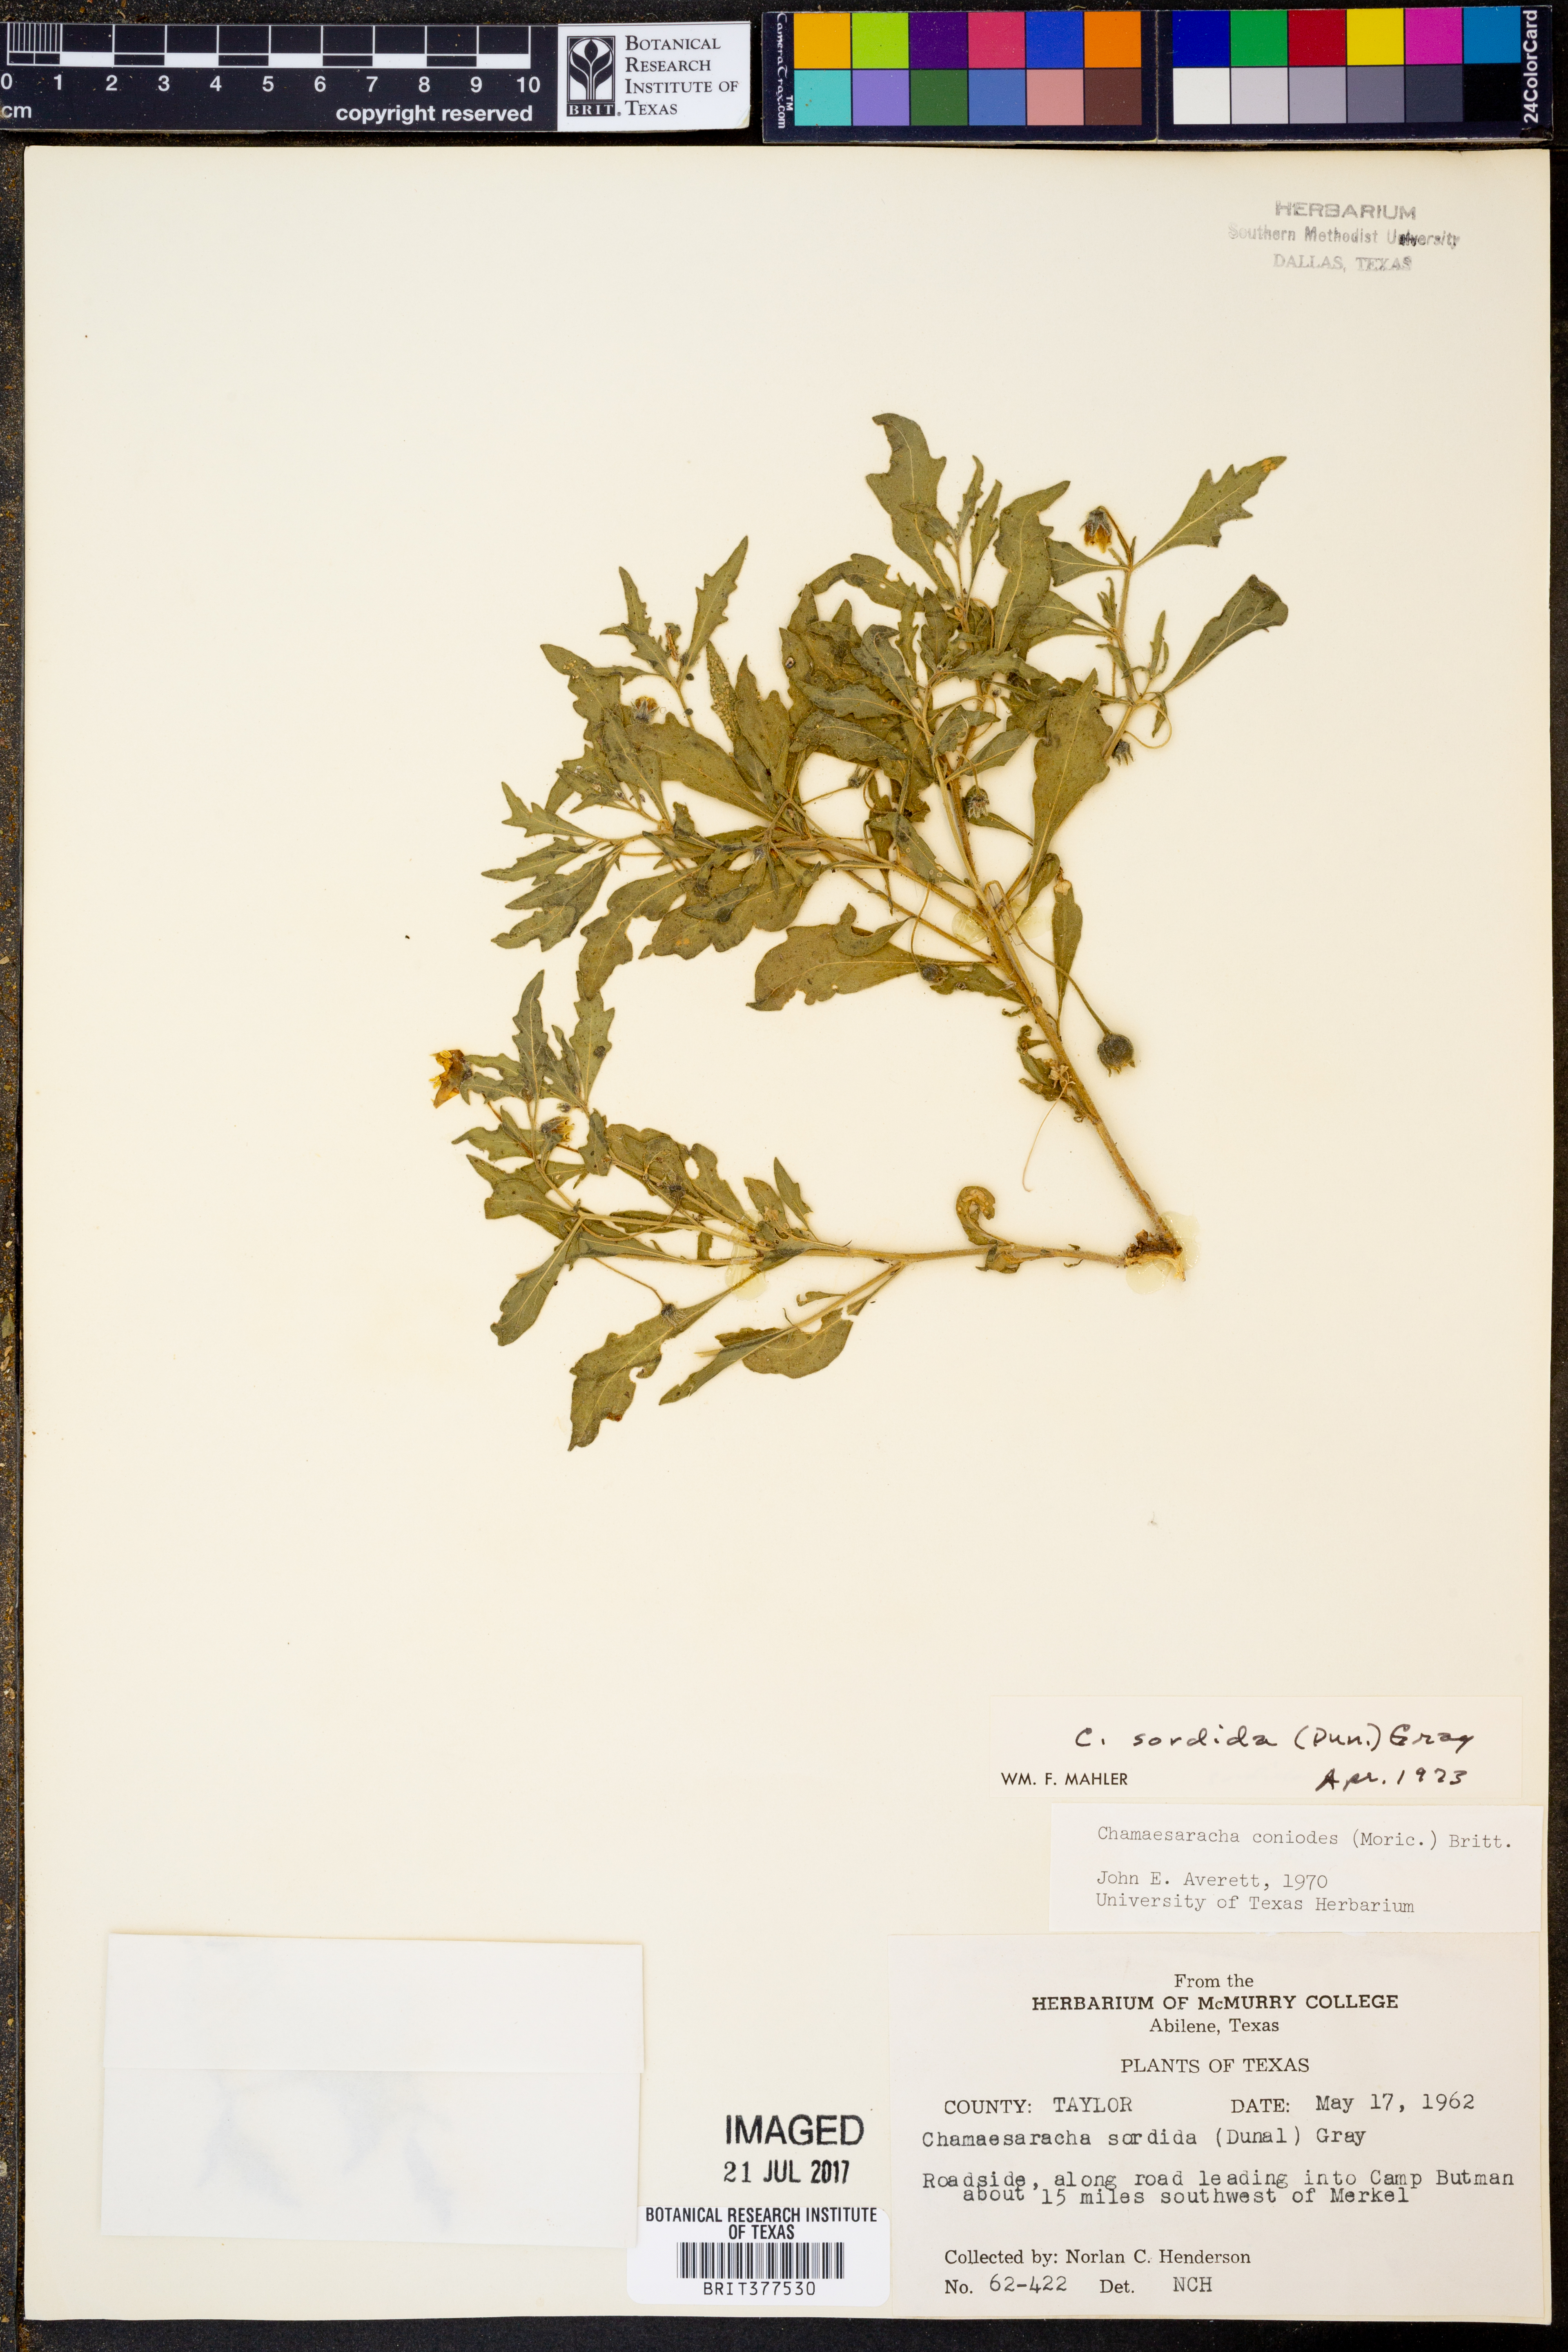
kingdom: Plantae
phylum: Tracheophyta
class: Magnoliopsida
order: Solanales
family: Solanaceae
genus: Chamaesaracha
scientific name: Chamaesaracha sordida
